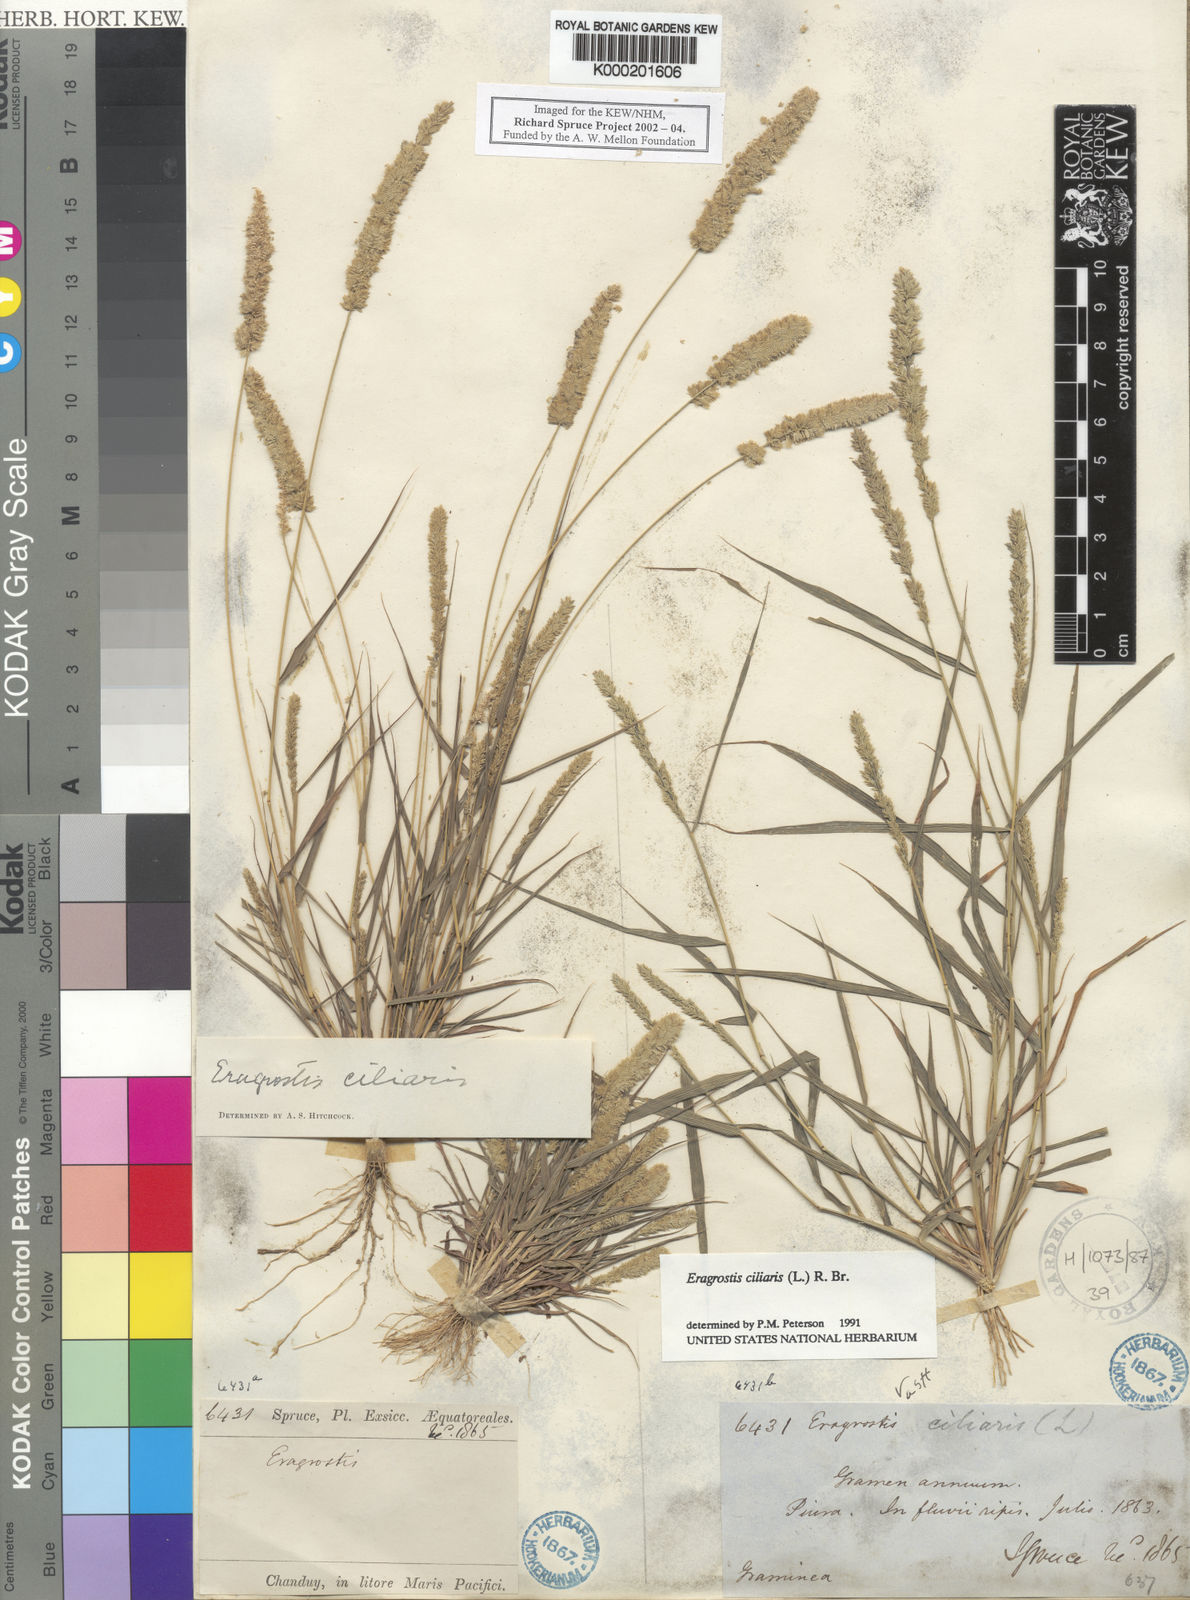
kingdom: Plantae
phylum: Tracheophyta
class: Liliopsida
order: Poales
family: Poaceae
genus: Eragrostis
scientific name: Eragrostis ciliaris
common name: Gophertail lovegrass
